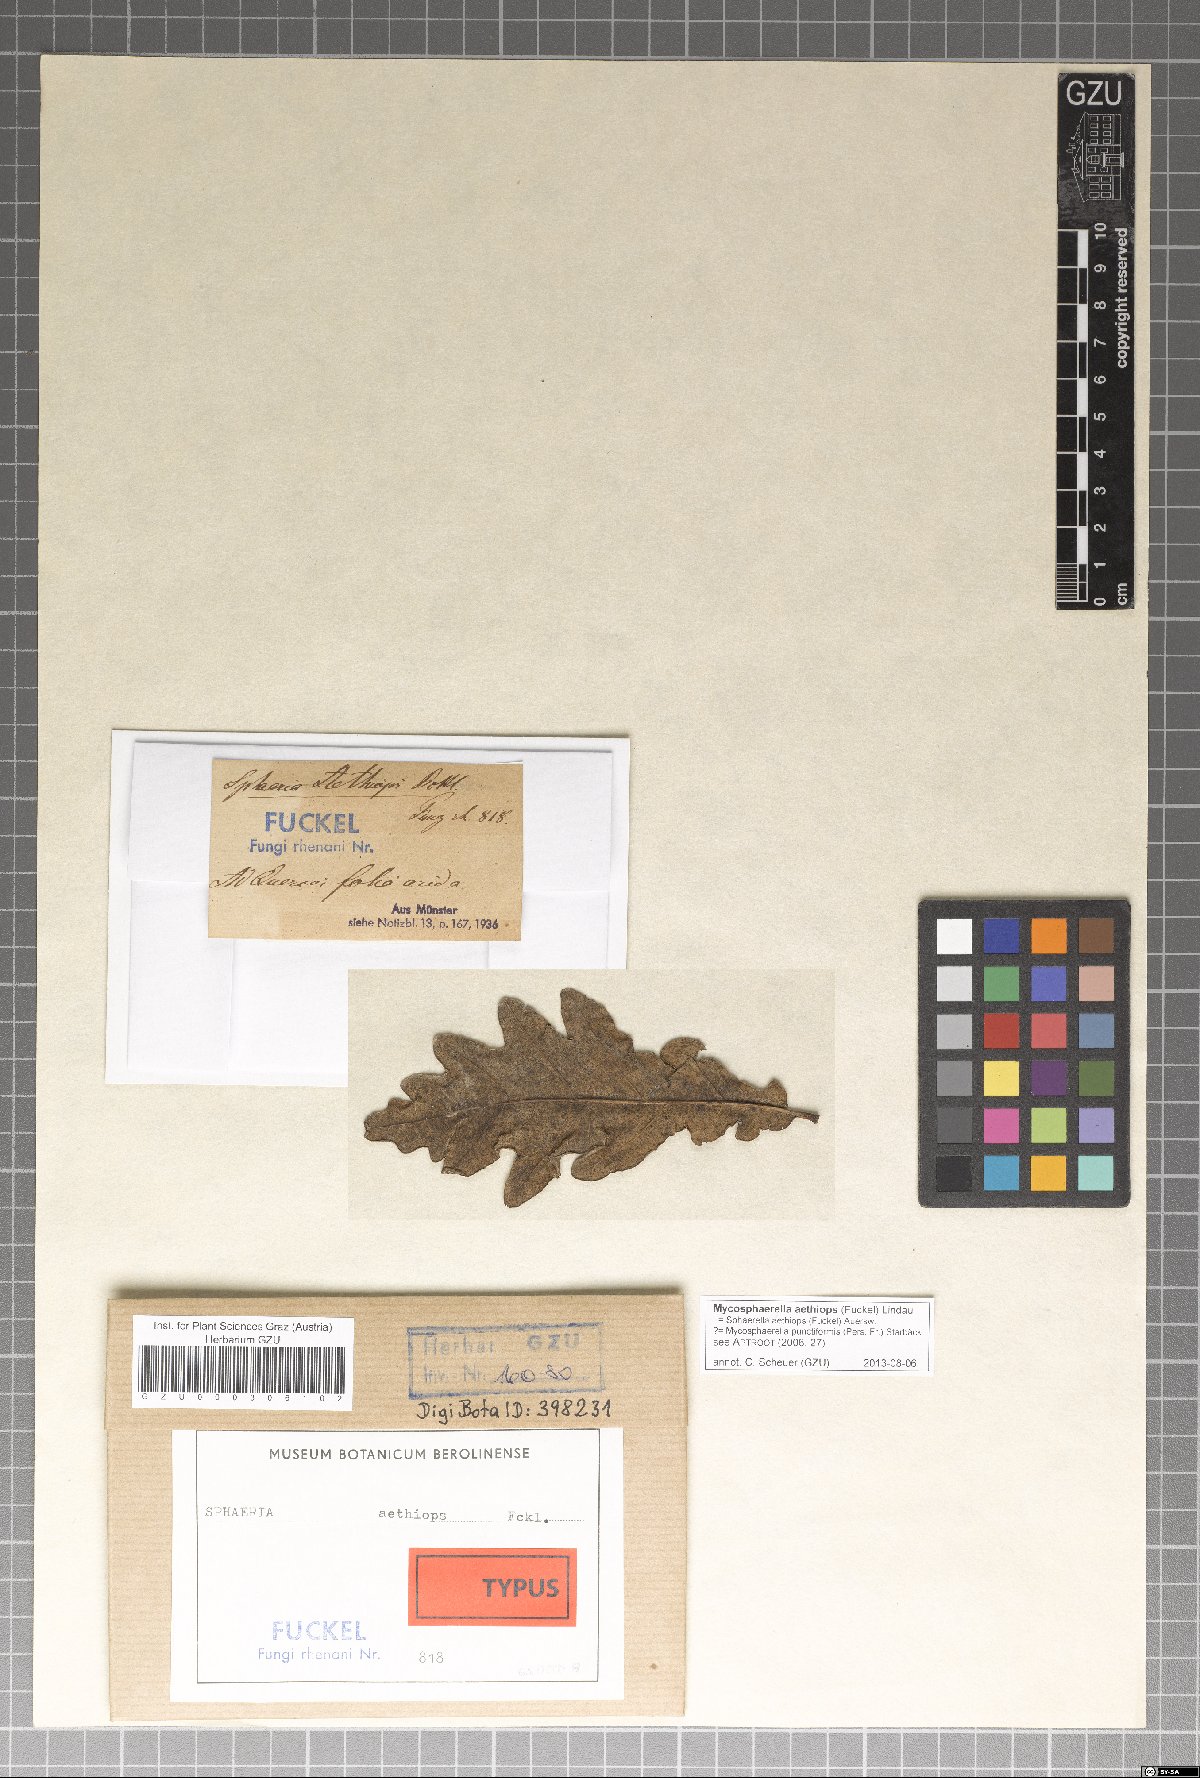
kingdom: Fungi
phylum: Ascomycota
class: Dothideomycetes
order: Mycosphaerellales
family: Mycosphaerellaceae
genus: Mycosphaerella
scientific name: Mycosphaerella aethiops
